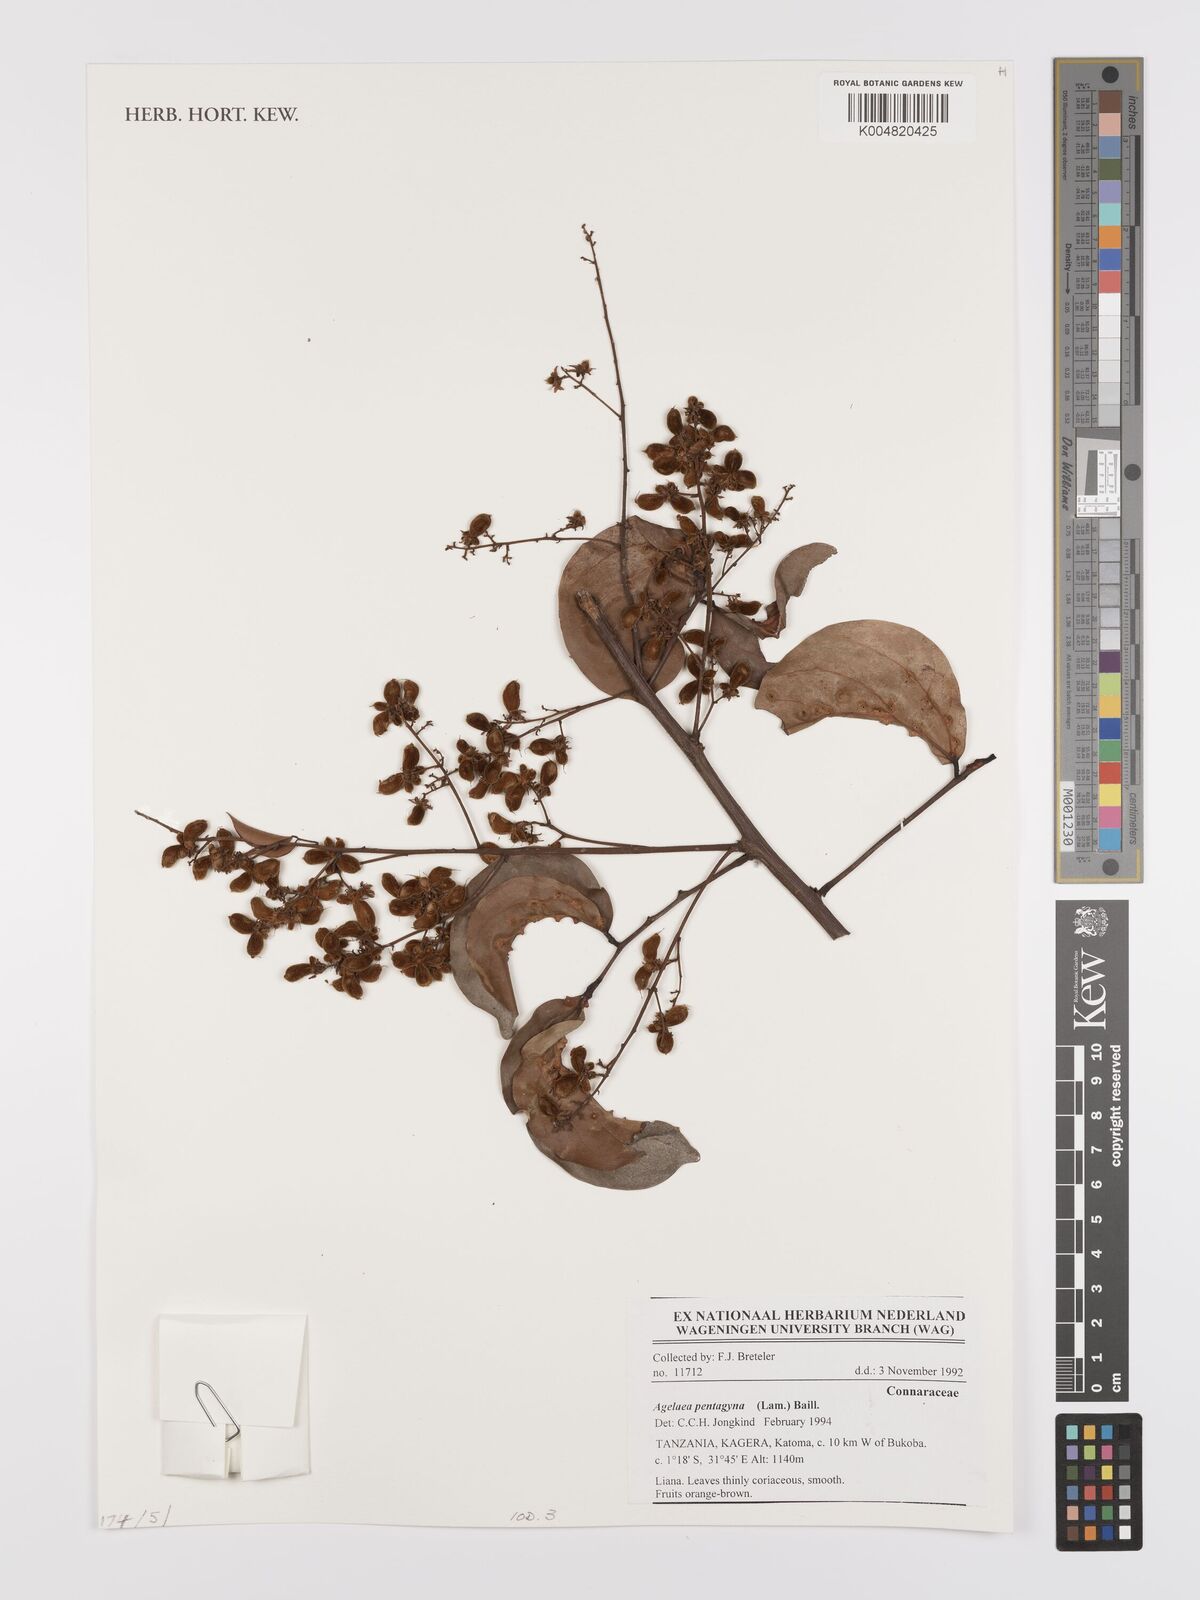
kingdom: Plantae
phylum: Tracheophyta
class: Magnoliopsida
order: Oxalidales
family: Connaraceae
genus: Agelaea
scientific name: Agelaea pentagyna
